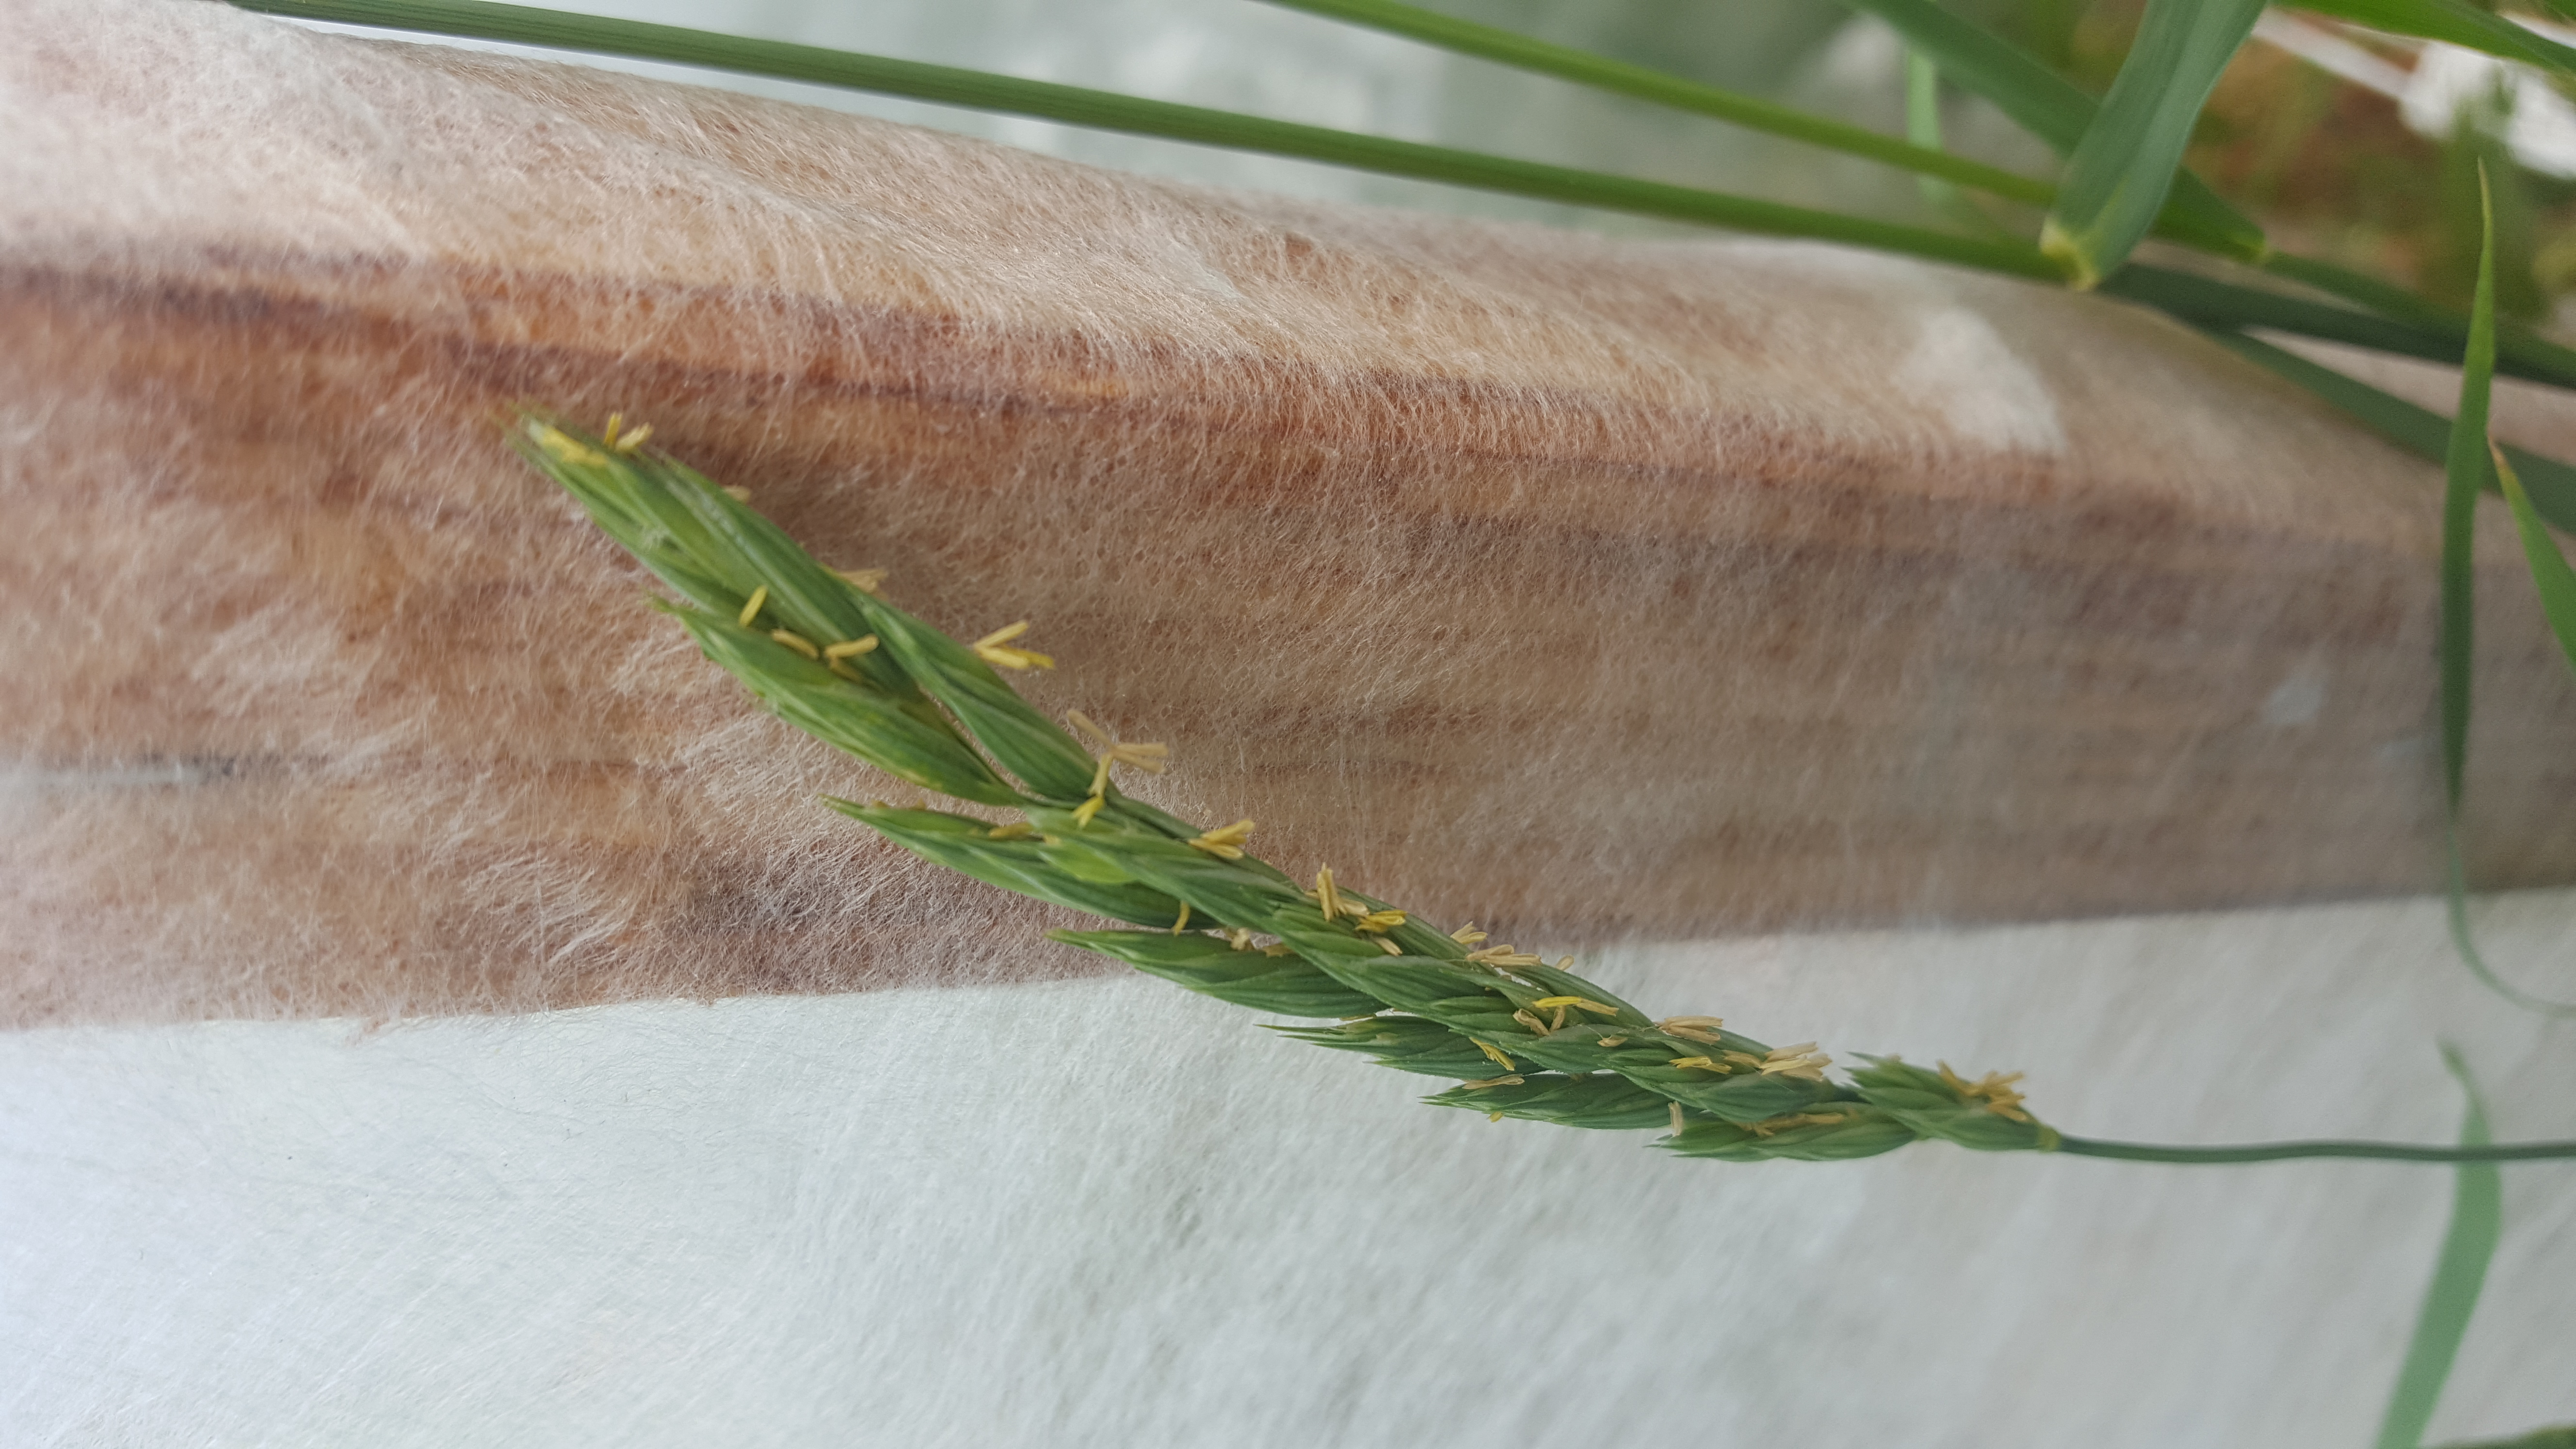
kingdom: Plantae
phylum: Tracheophyta
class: Liliopsida
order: Poales
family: Poaceae
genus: Elymus
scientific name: Elymus fedtschenkoi
